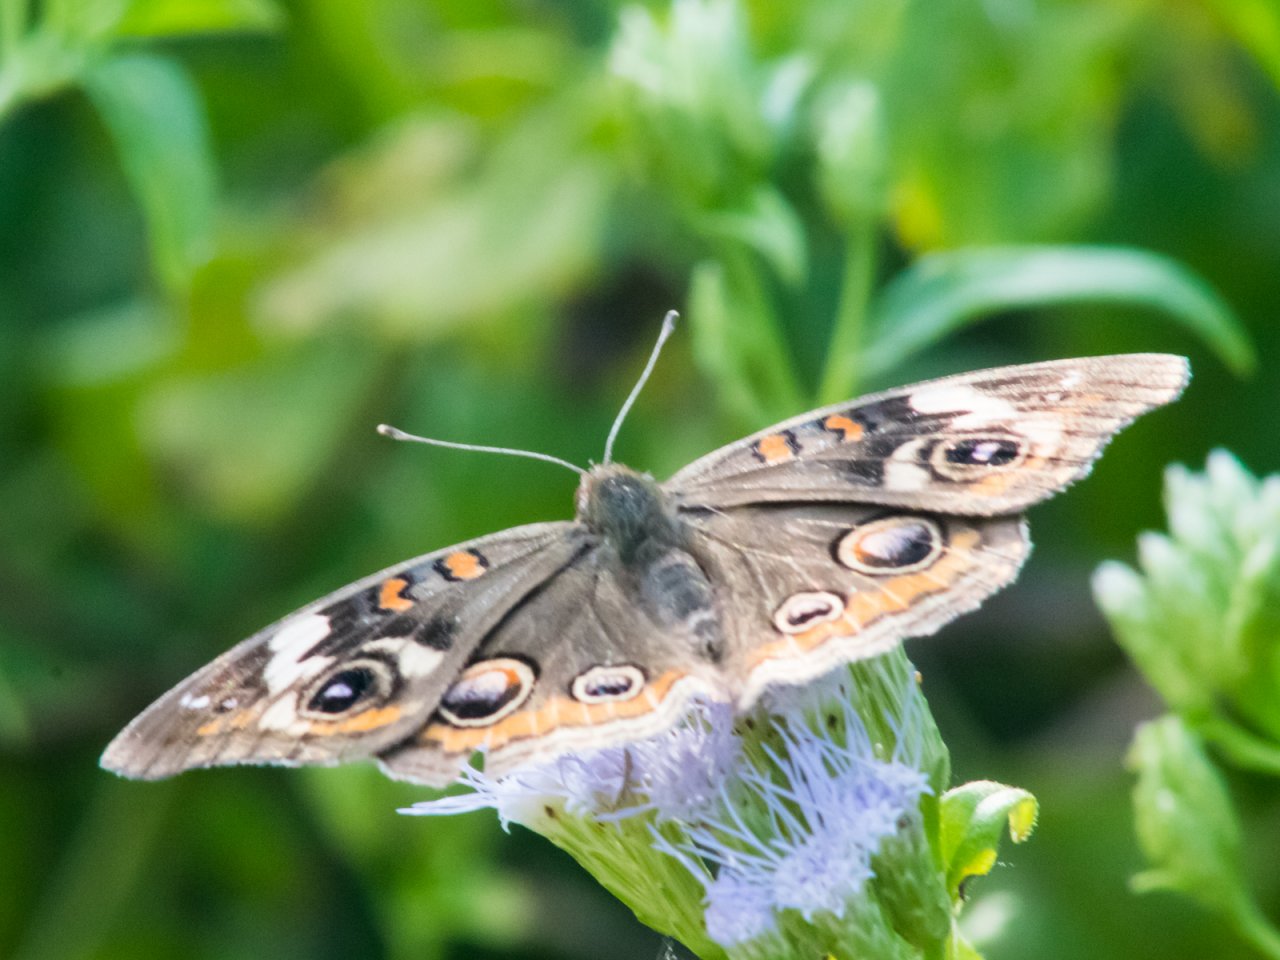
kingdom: Animalia
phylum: Arthropoda
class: Insecta
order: Lepidoptera
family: Nymphalidae
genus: Junonia
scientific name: Junonia coenia
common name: Common Buckeye
